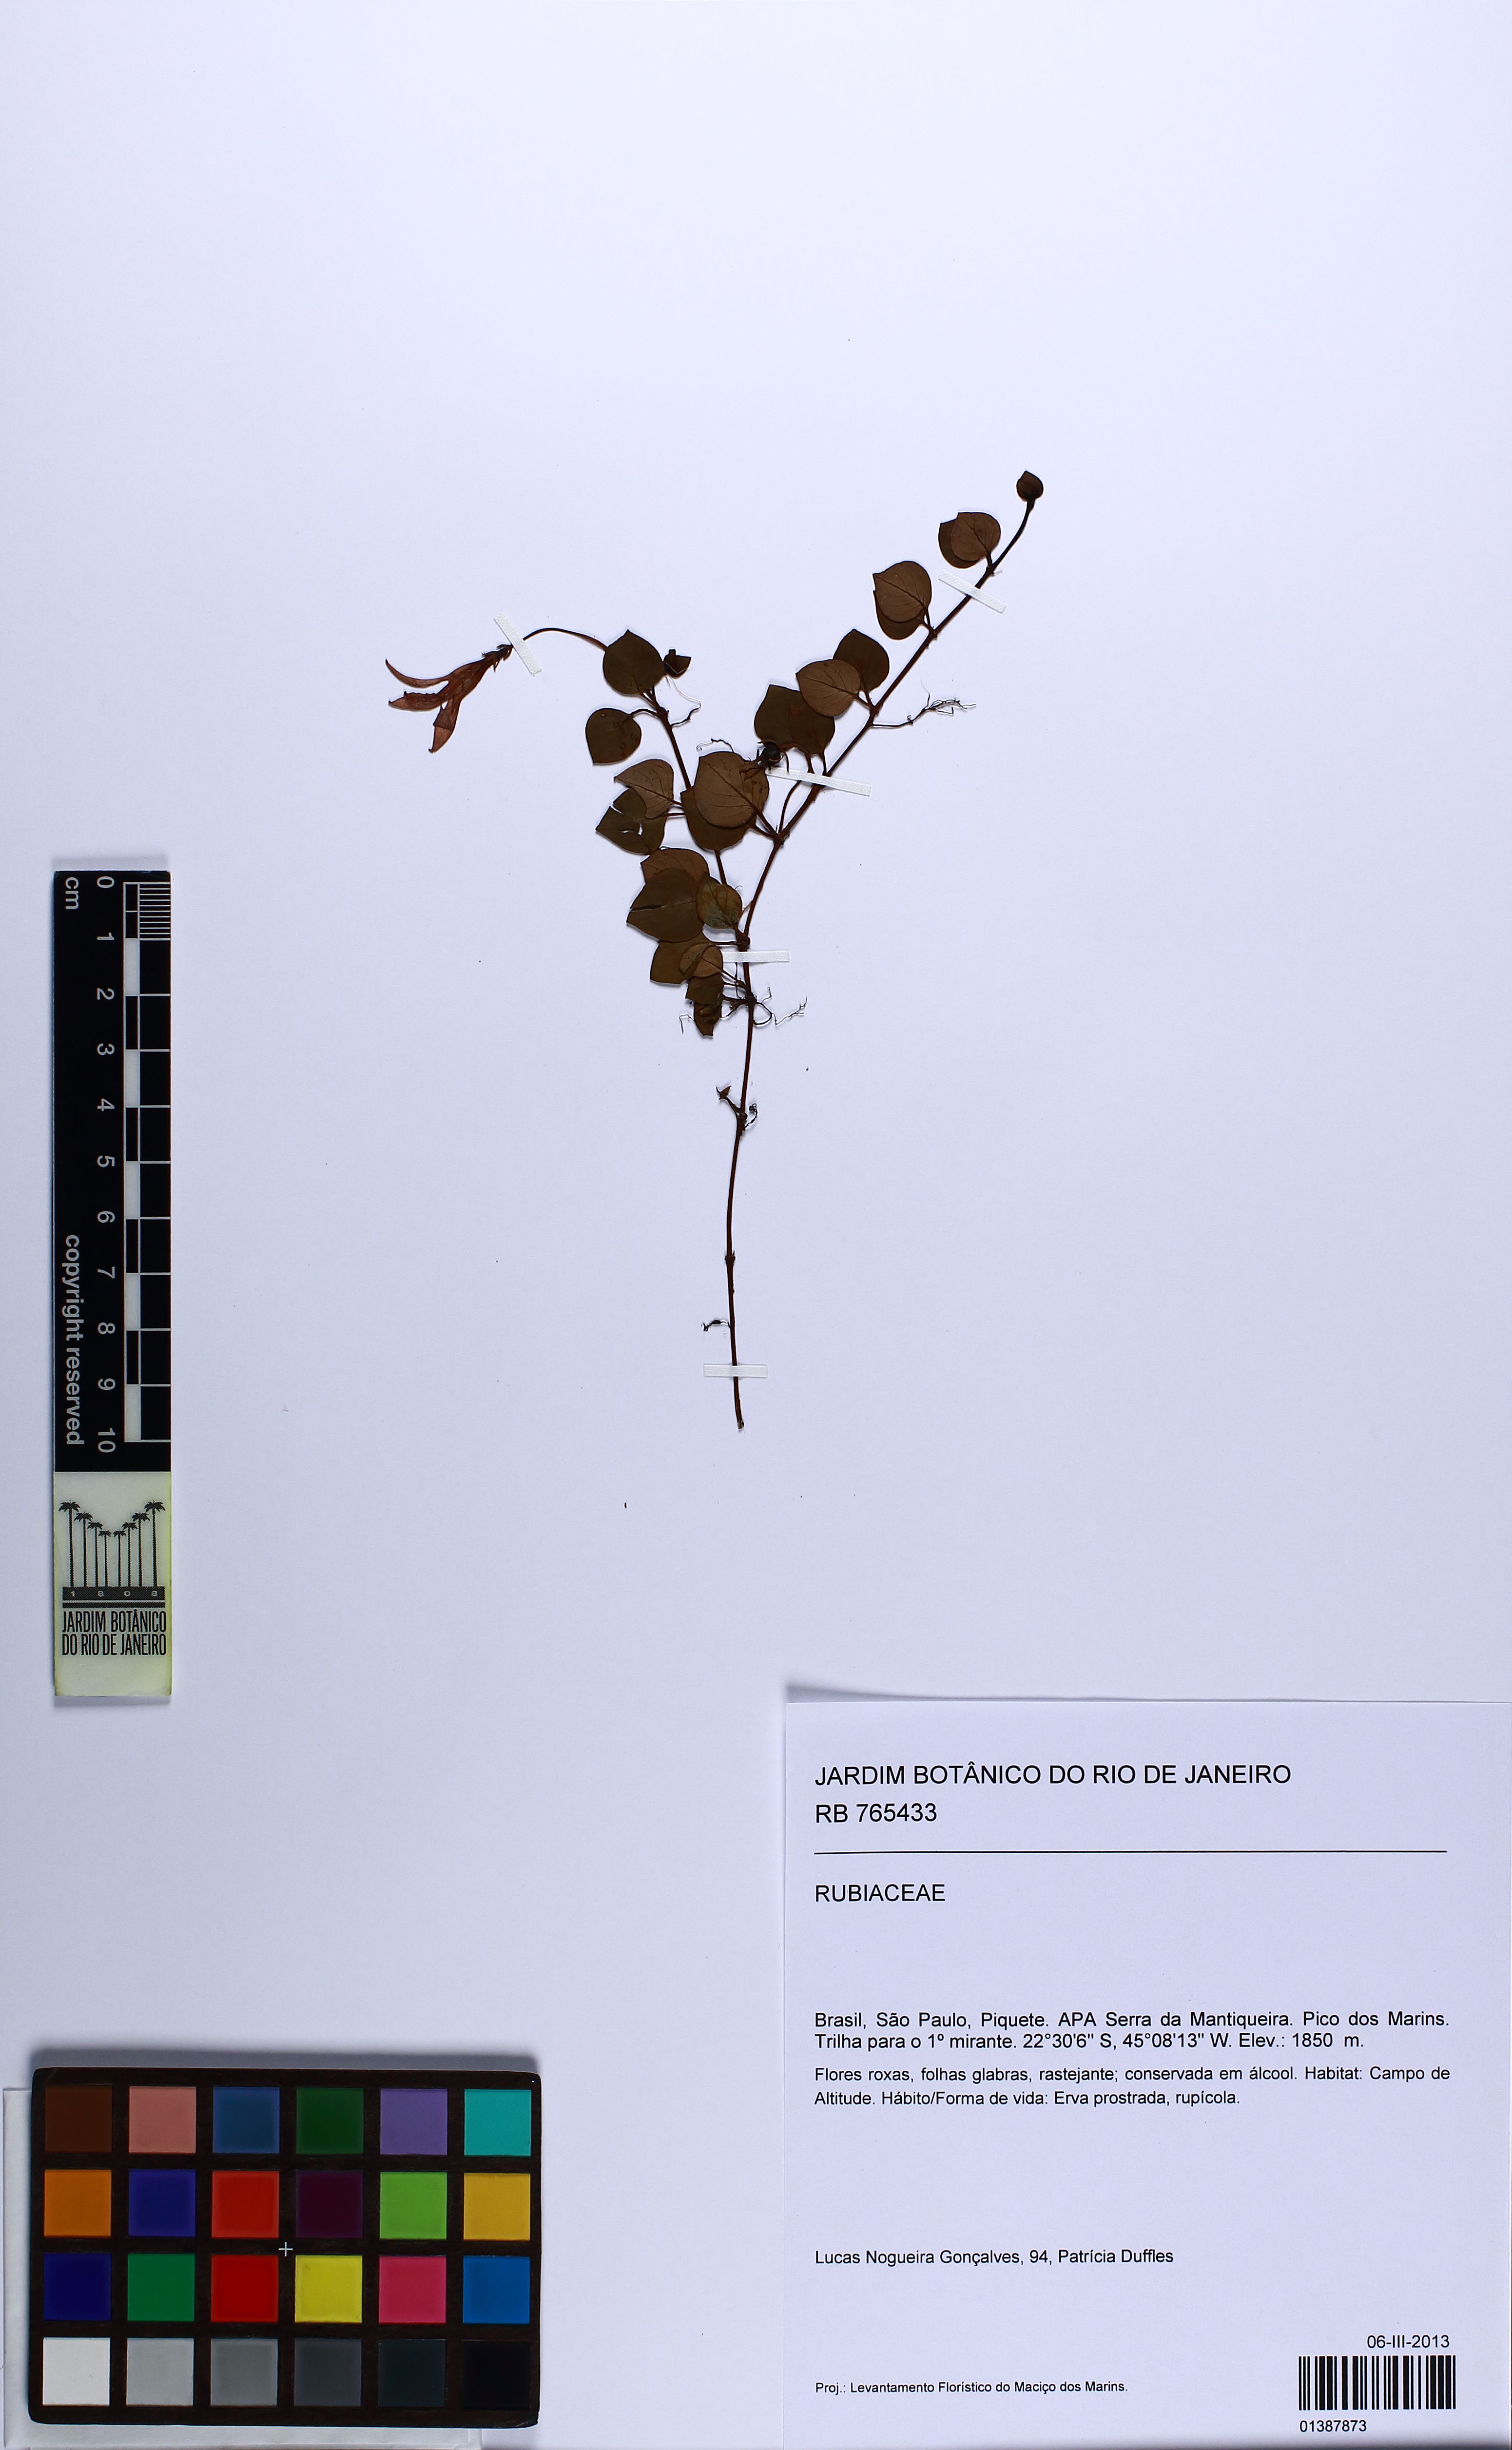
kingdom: Plantae
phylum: Tracheophyta
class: Magnoliopsida
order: Gentianales
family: Rubiaceae
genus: Coccocypselum
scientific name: Coccocypselum
